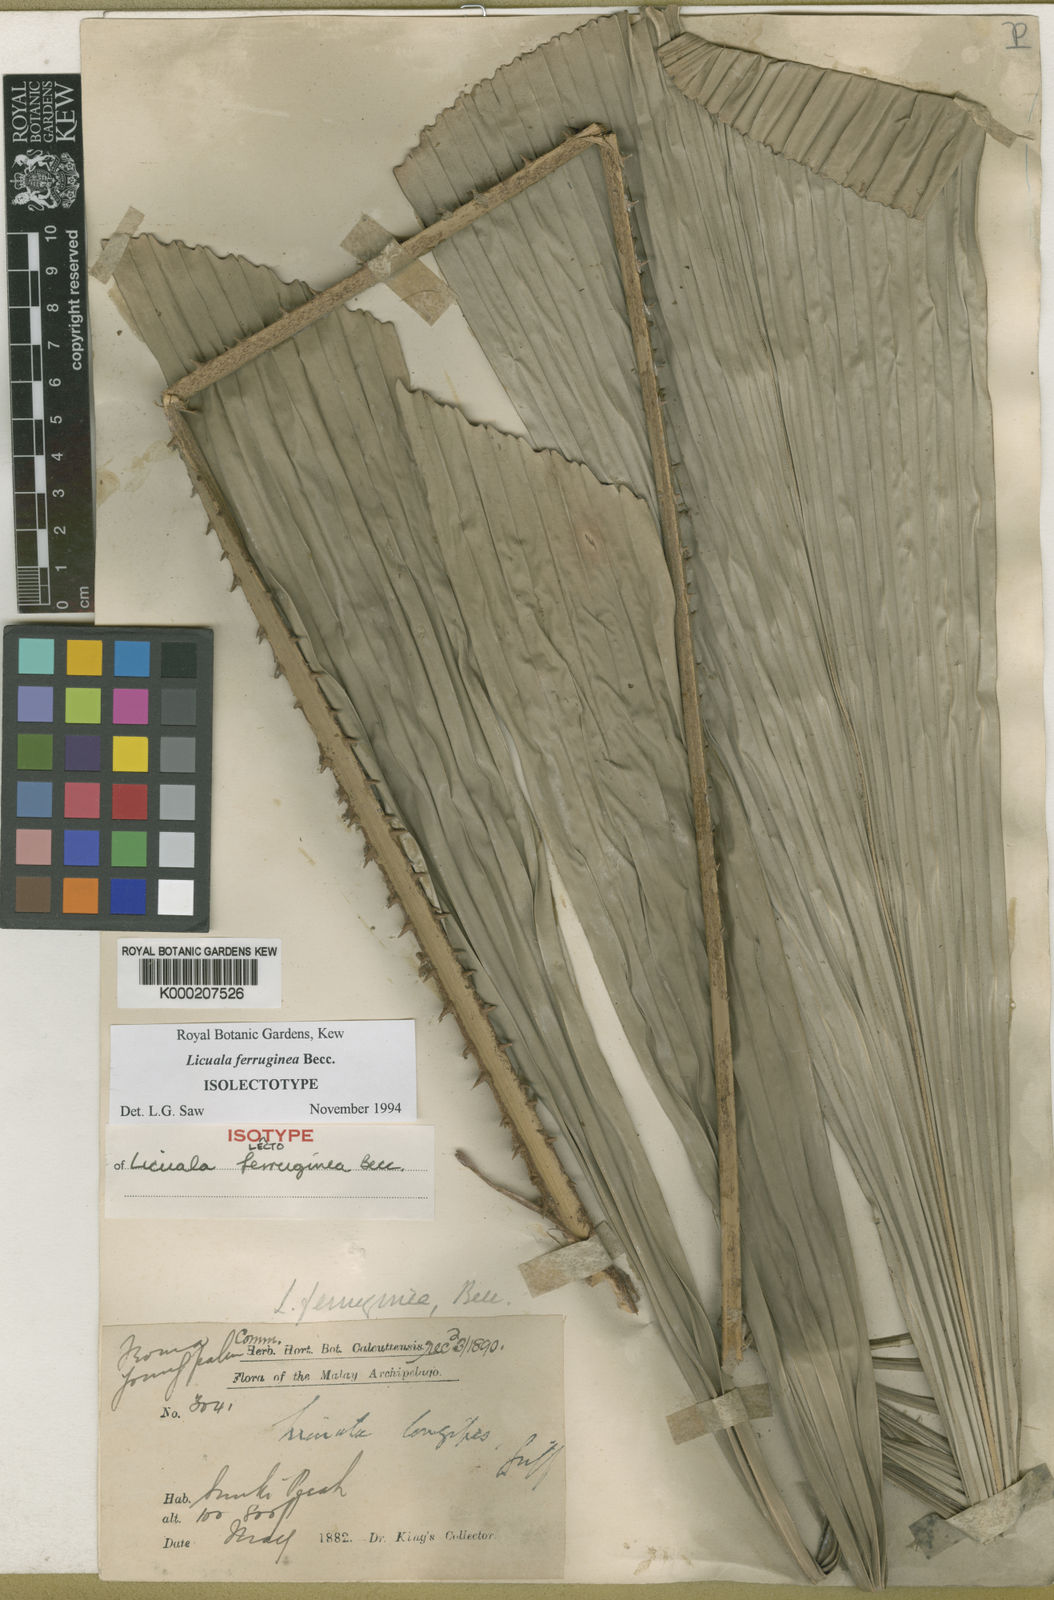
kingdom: Plantae
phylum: Tracheophyta
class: Liliopsida
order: Arecales
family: Arecaceae
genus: Licuala
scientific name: Licuala ferruginea
